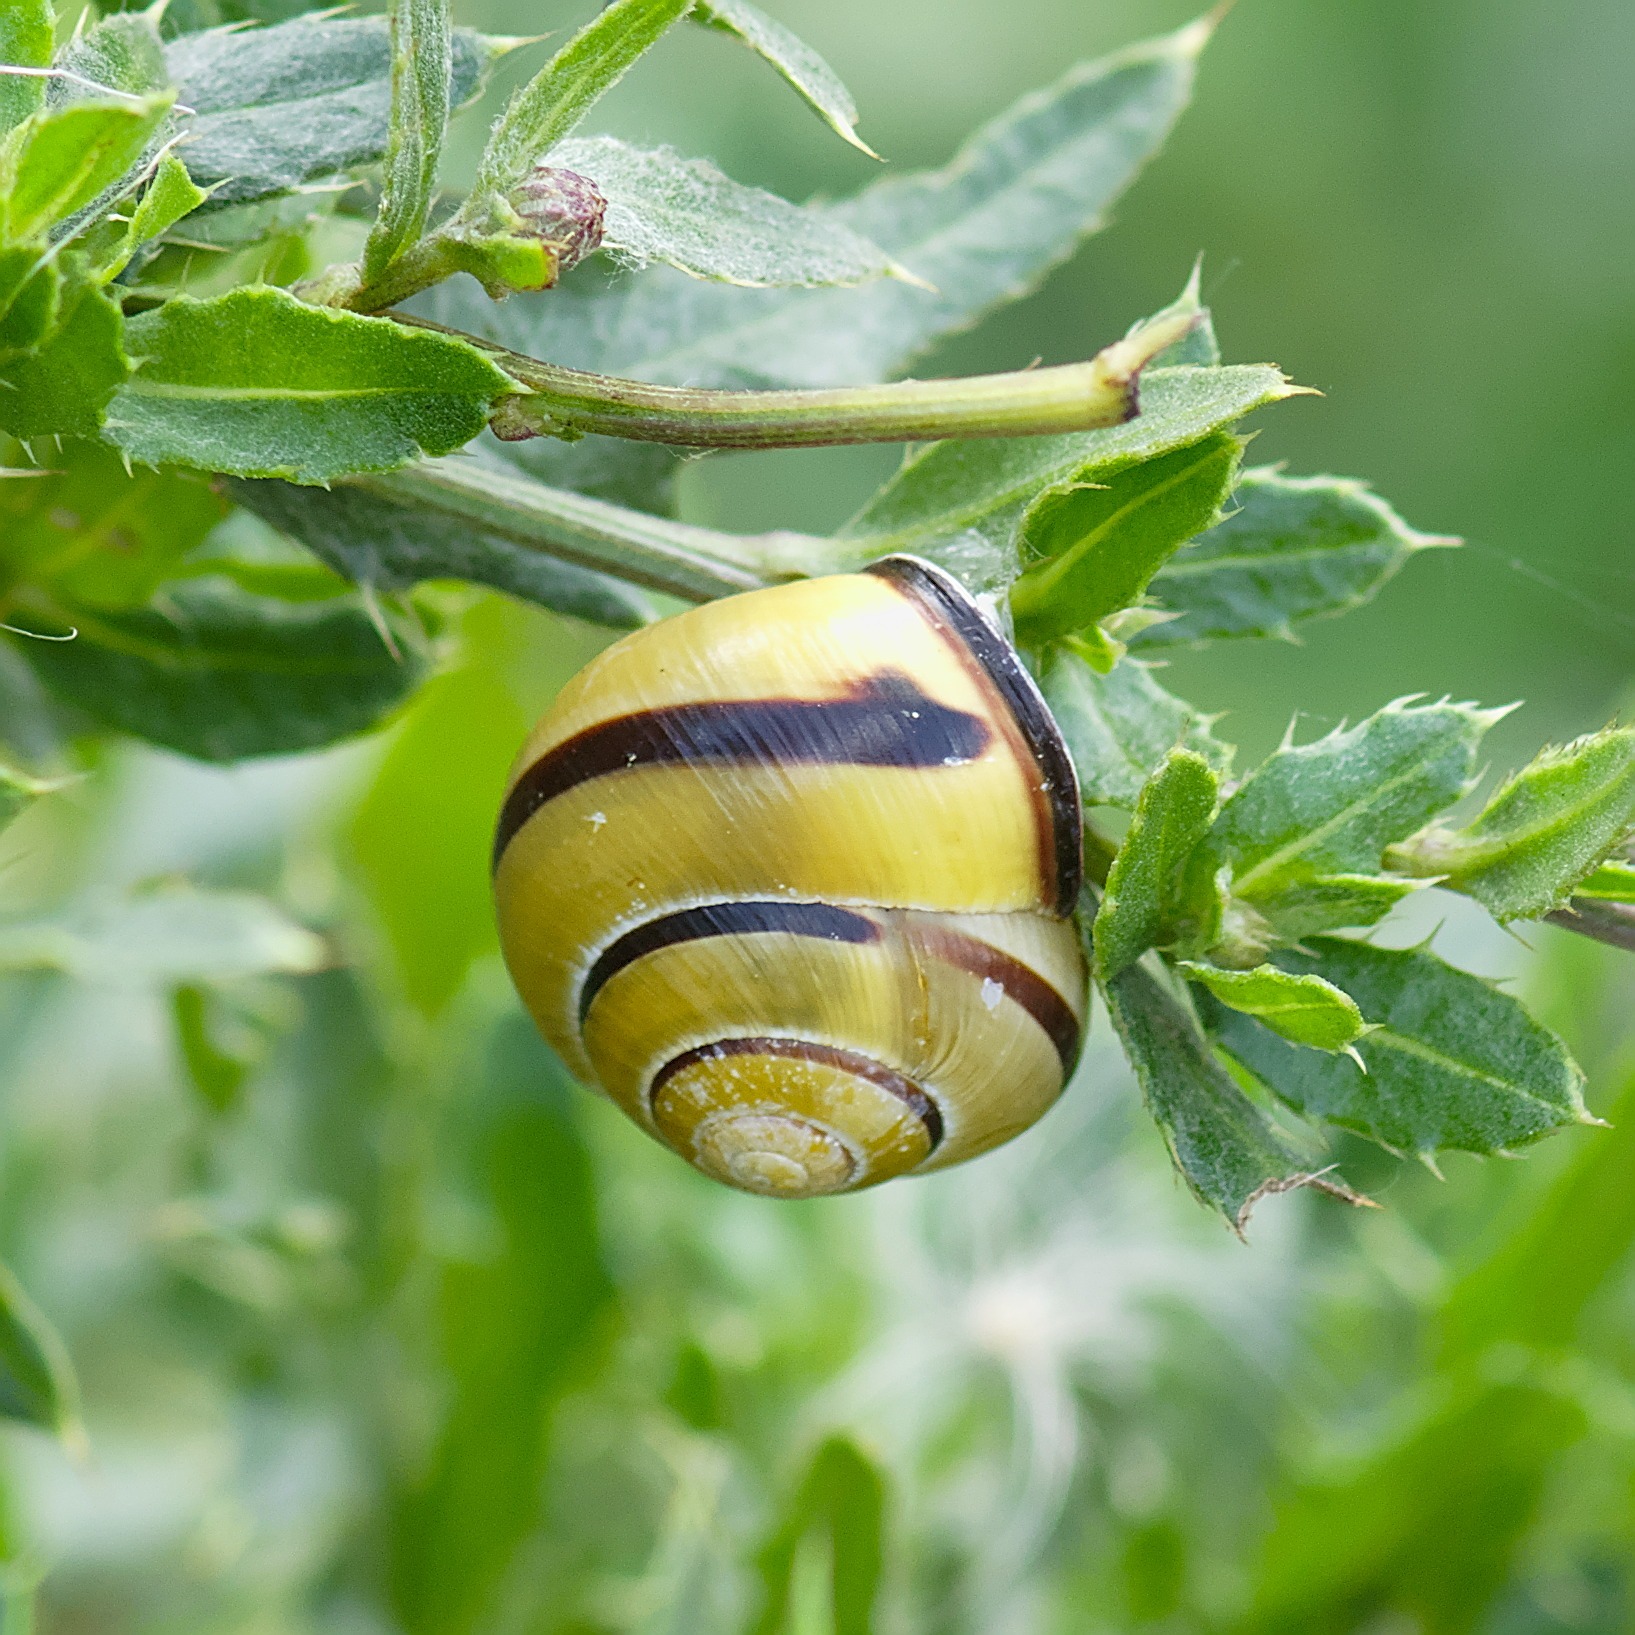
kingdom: Animalia
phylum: Mollusca
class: Gastropoda
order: Stylommatophora
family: Helicidae
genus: Cepaea
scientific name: Cepaea nemoralis
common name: Lundsnegl
